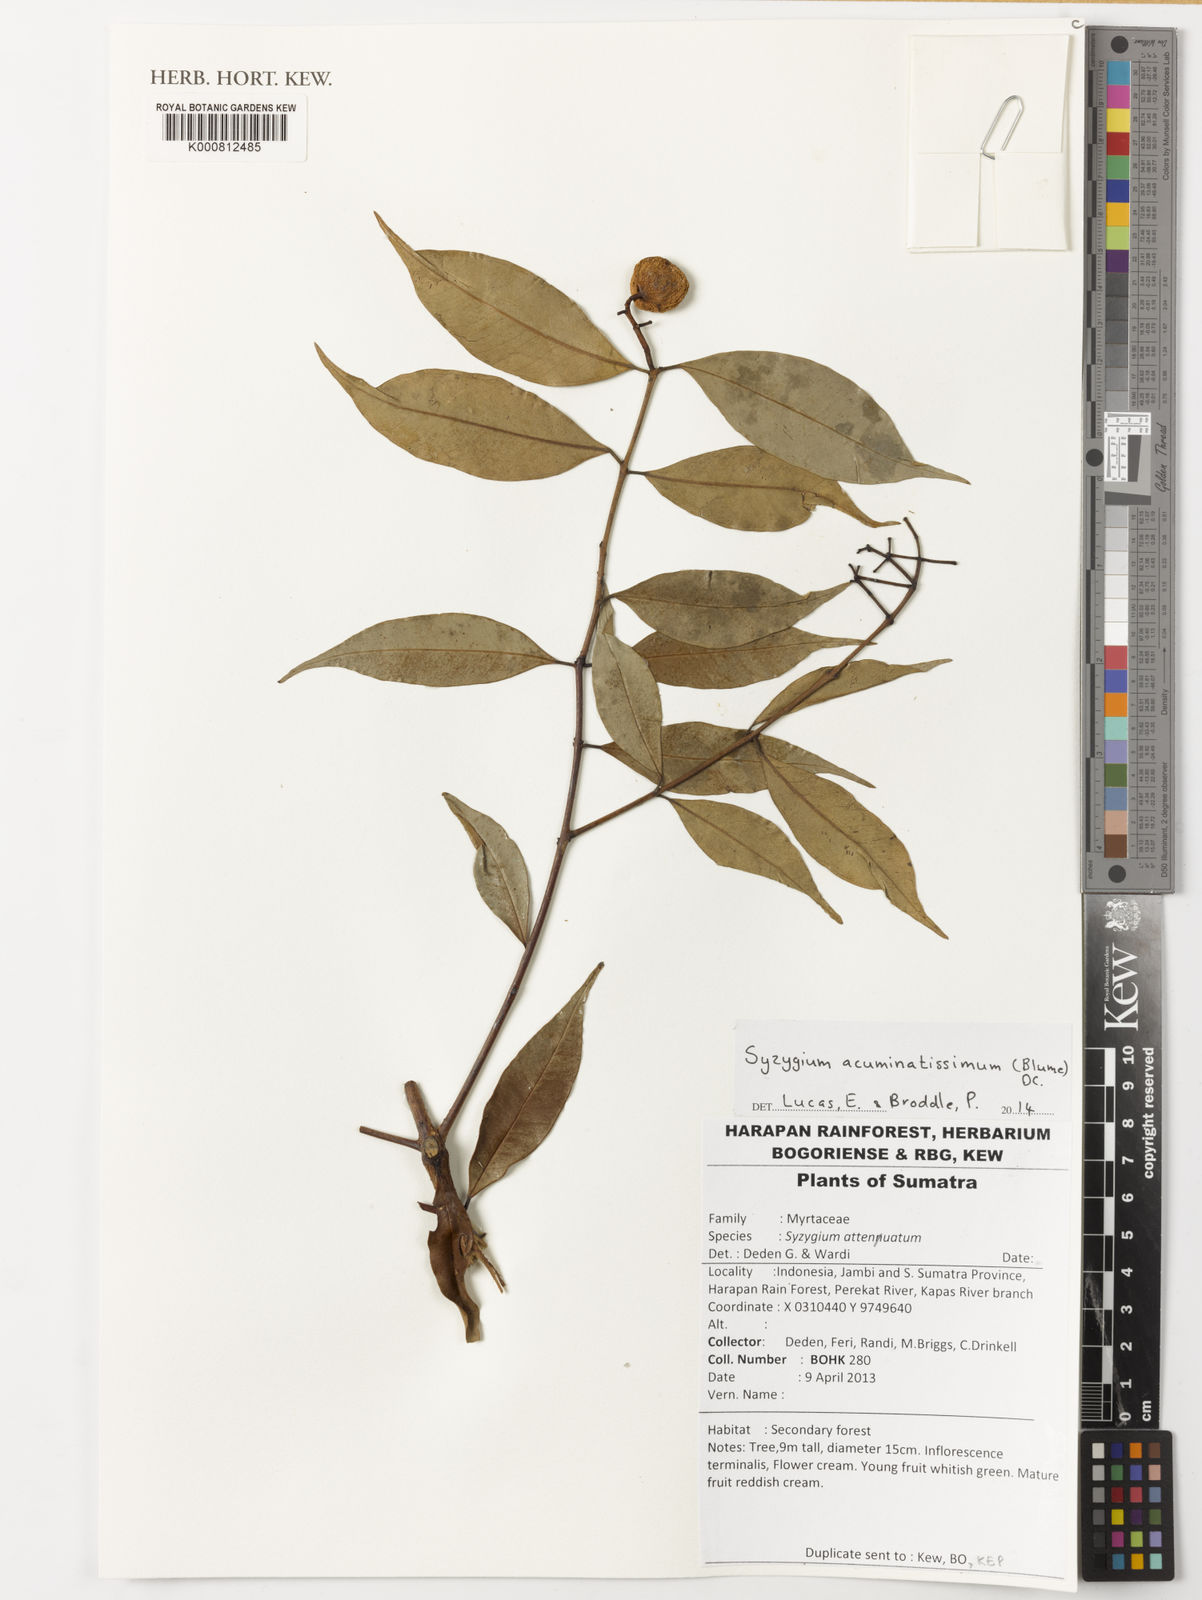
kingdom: Plantae
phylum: Tracheophyta
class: Magnoliopsida
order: Myrtales
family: Myrtaceae
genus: Syzygium
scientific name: Syzygium acuminatissimum
